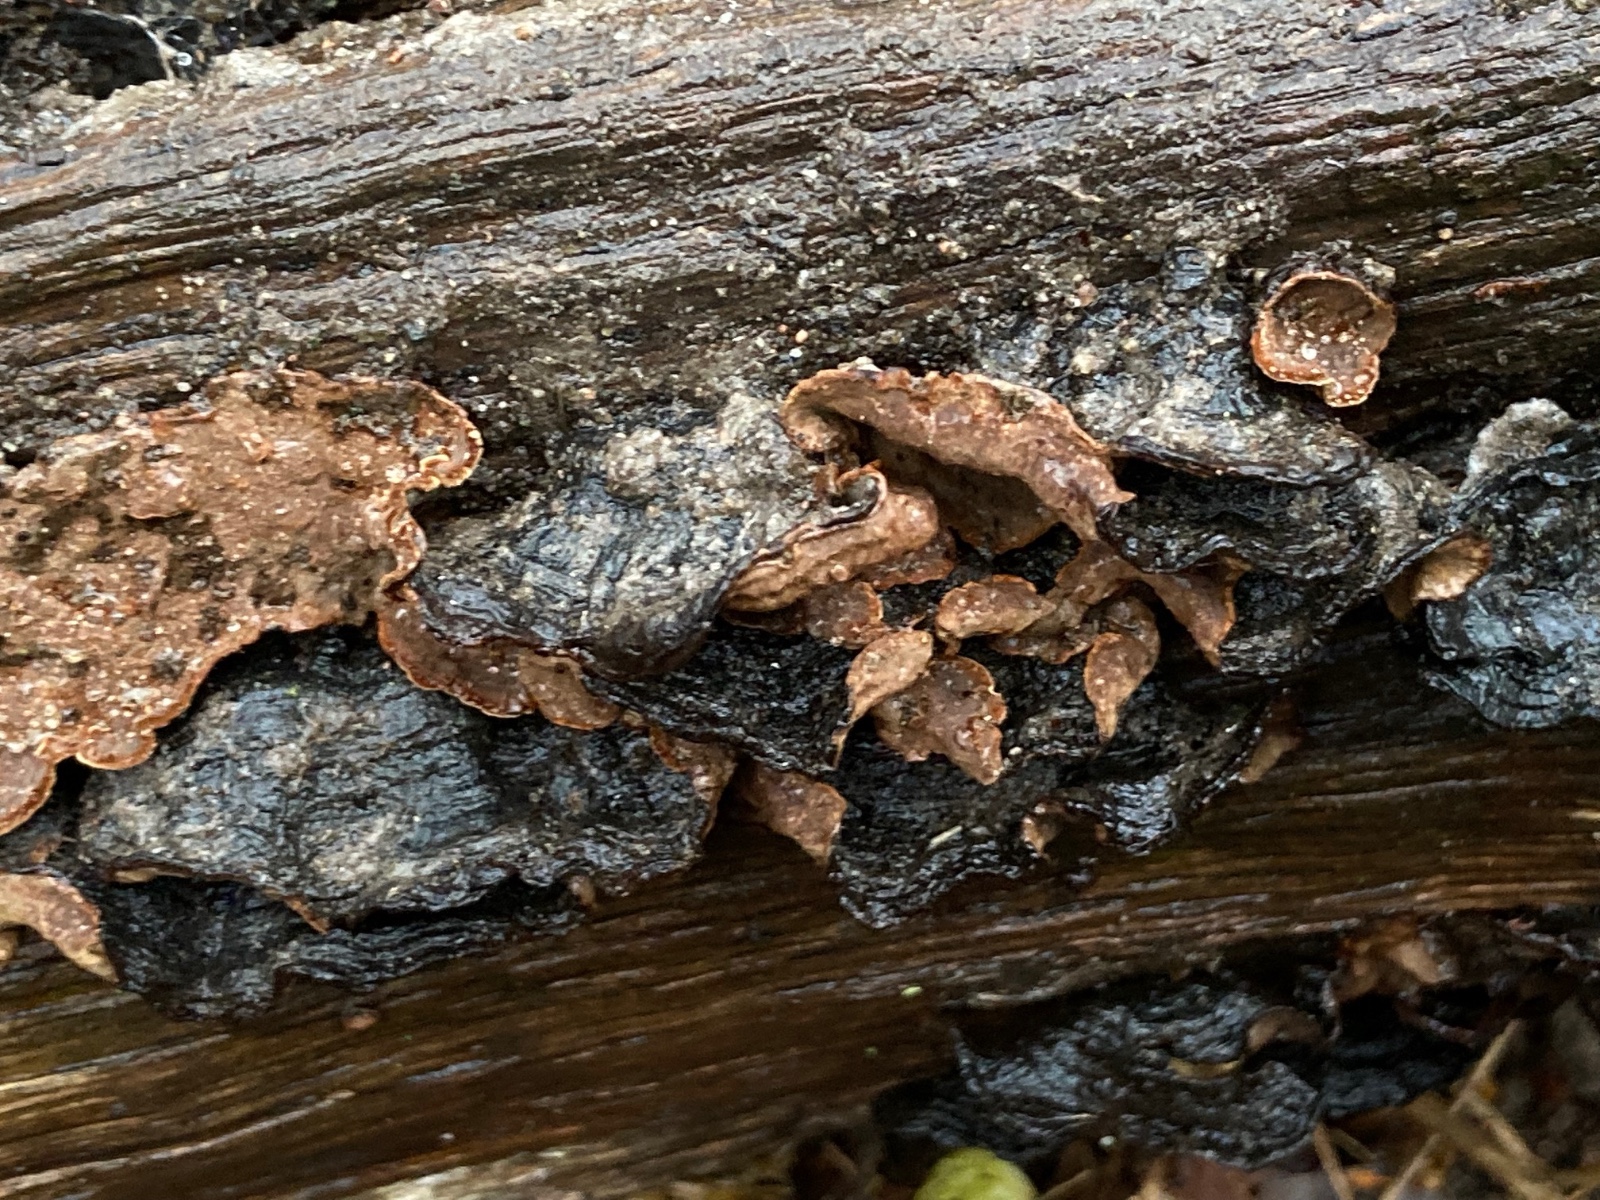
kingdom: Fungi
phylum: Basidiomycota
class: Agaricomycetes
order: Hymenochaetales
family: Hymenochaetaceae
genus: Hymenochaete
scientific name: Hymenochaete rubiginosa
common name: stiv ruslædersvamp
